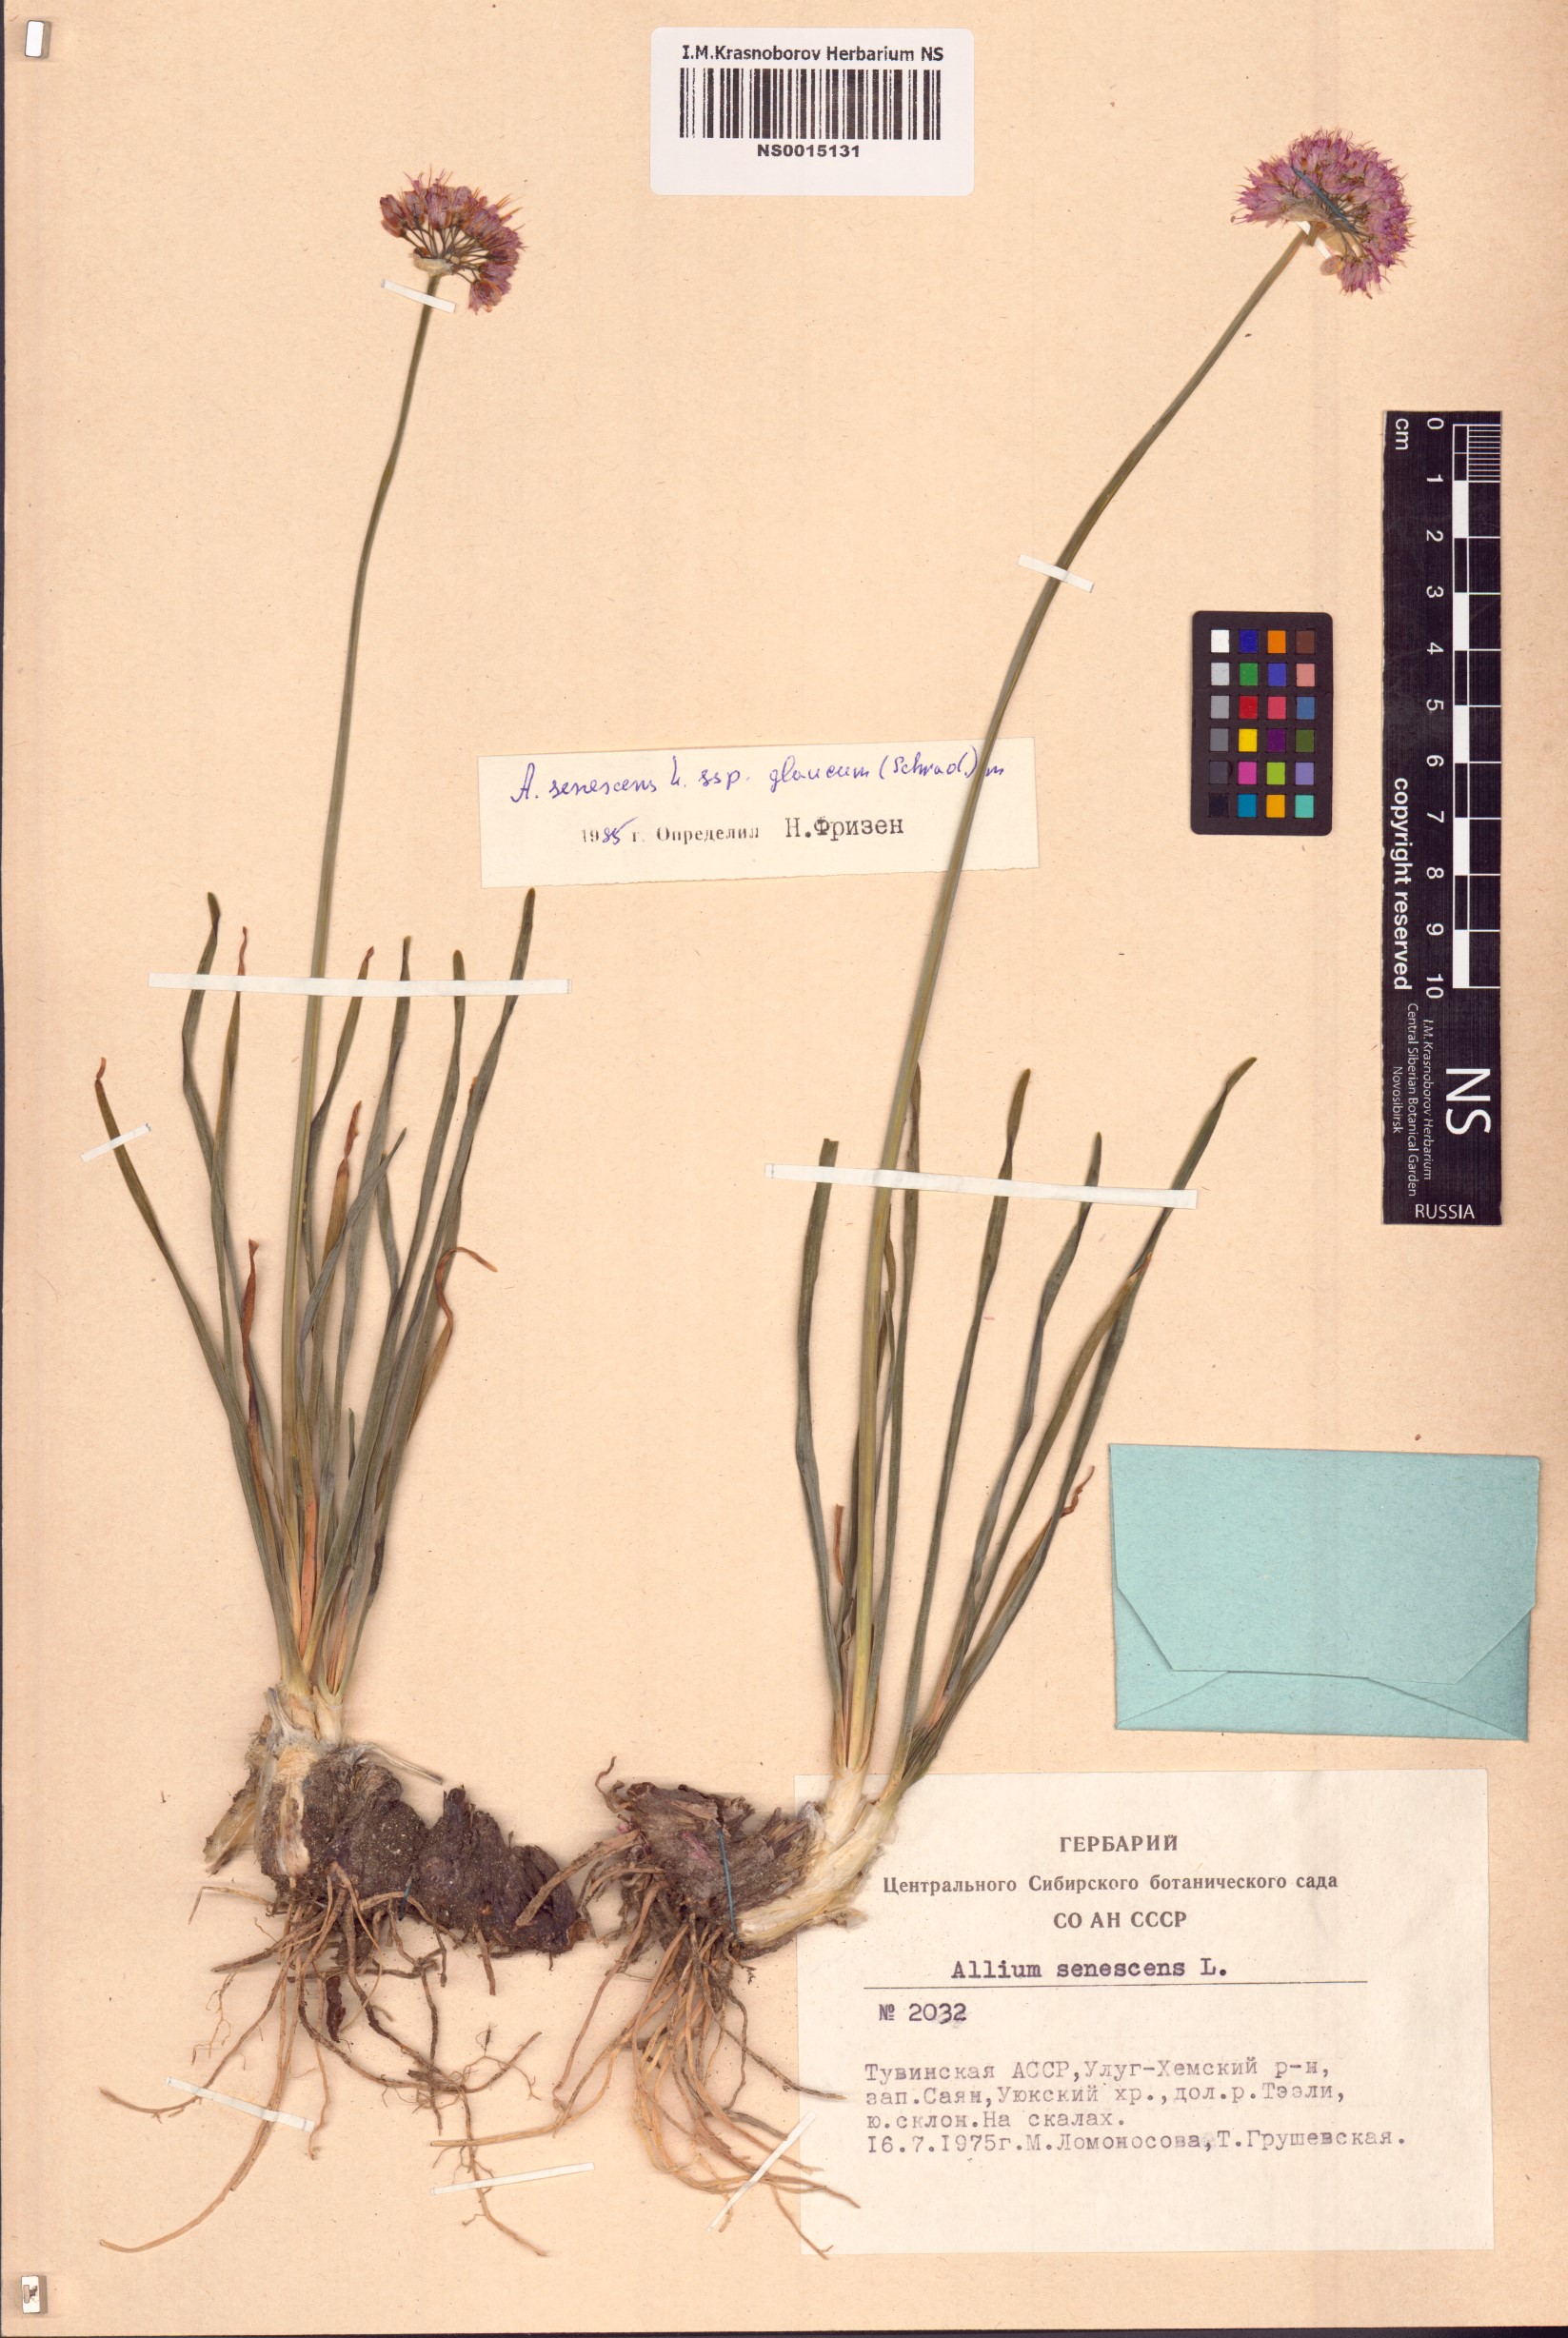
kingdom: Plantae
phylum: Tracheophyta
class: Liliopsida
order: Asparagales
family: Amaryllidaceae
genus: Allium
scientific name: Allium senescens
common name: German garlic
